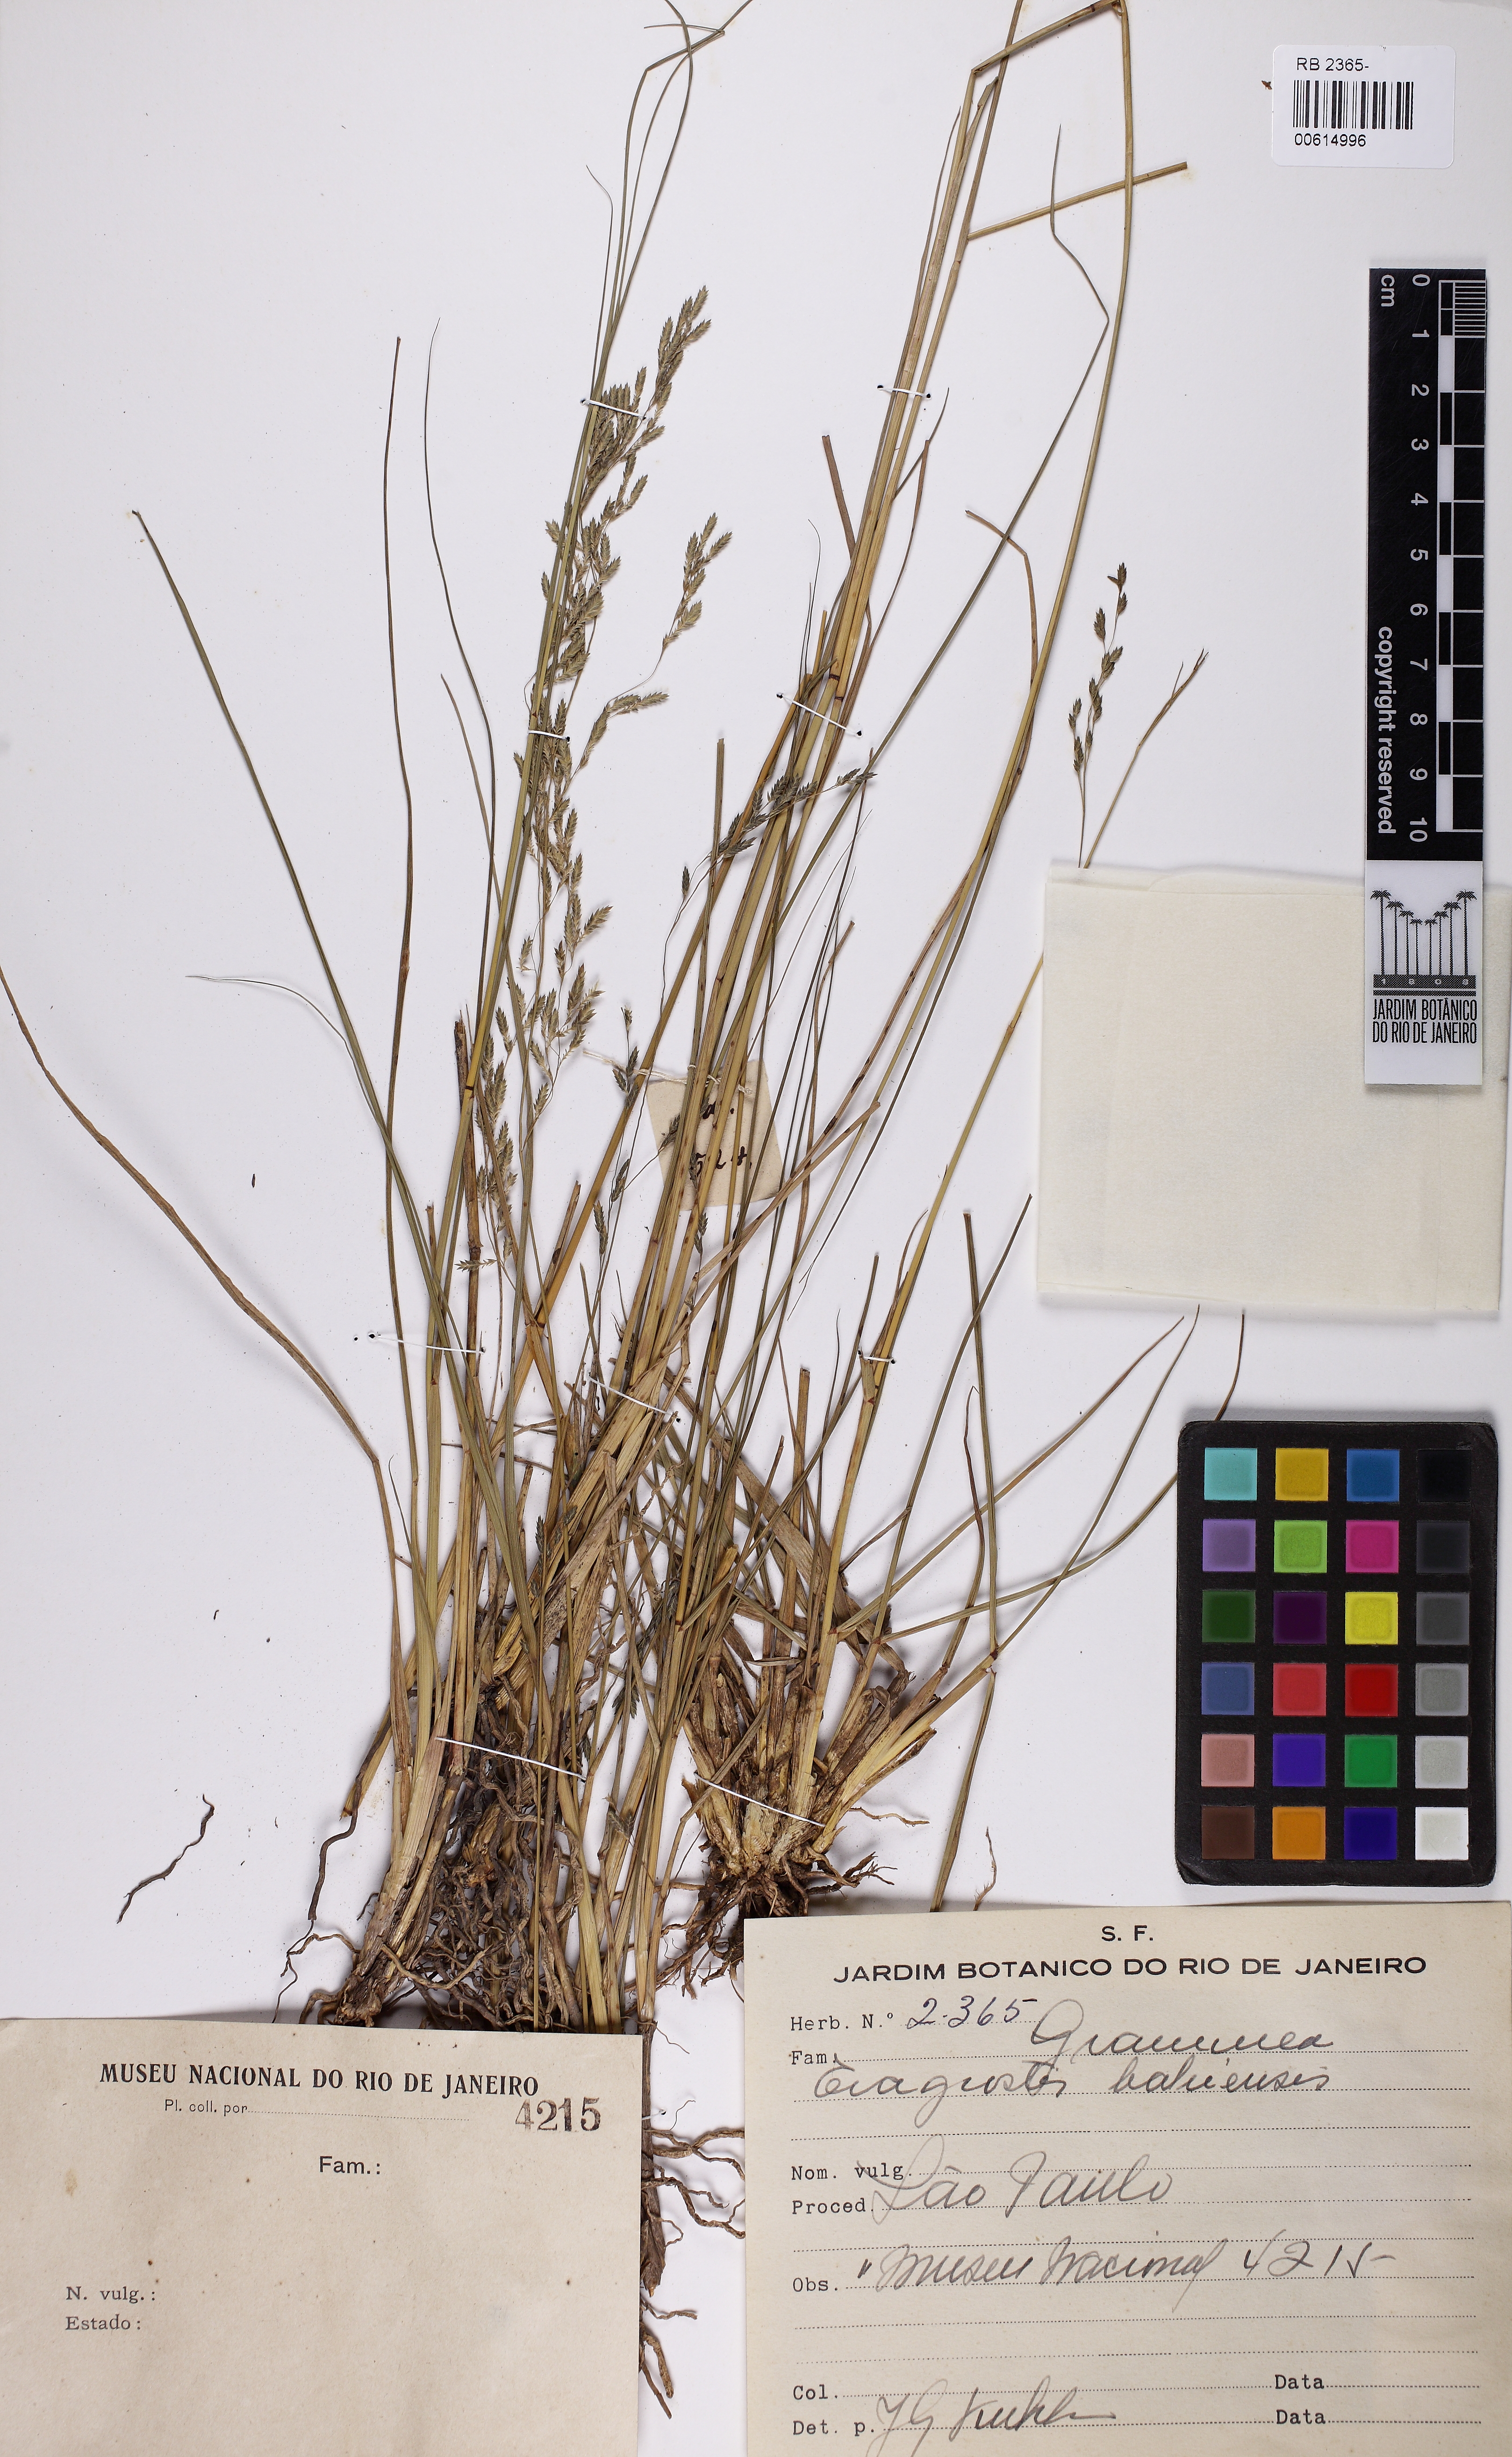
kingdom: Plantae
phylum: Tracheophyta
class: Liliopsida
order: Poales
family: Poaceae
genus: Eragrostis
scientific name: Eragrostis bahiensis
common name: Bahia lovegrass
